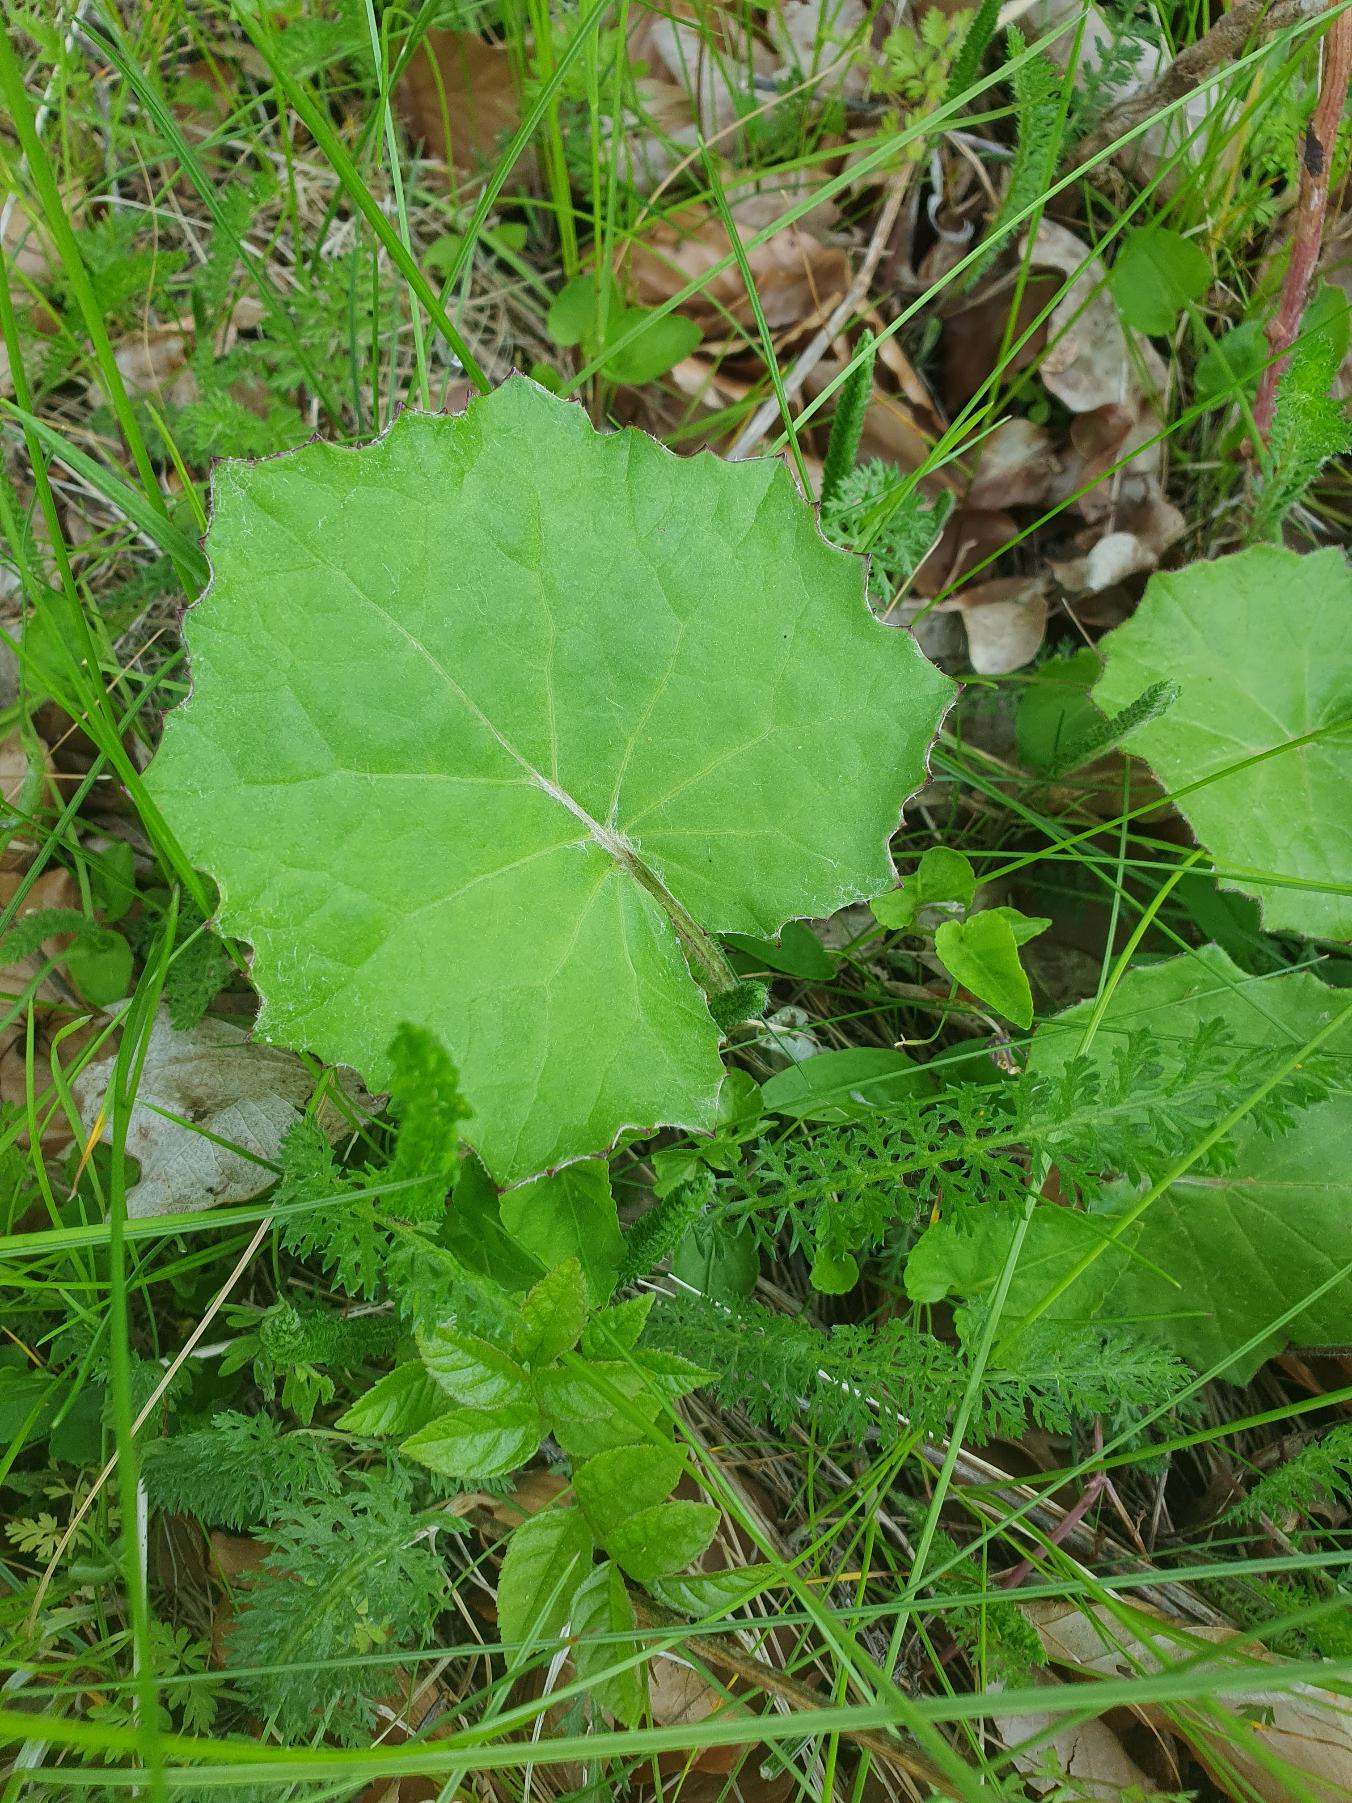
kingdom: Plantae
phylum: Tracheophyta
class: Magnoliopsida
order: Asterales
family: Asteraceae
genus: Tussilago
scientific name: Tussilago farfara
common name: Følfod
